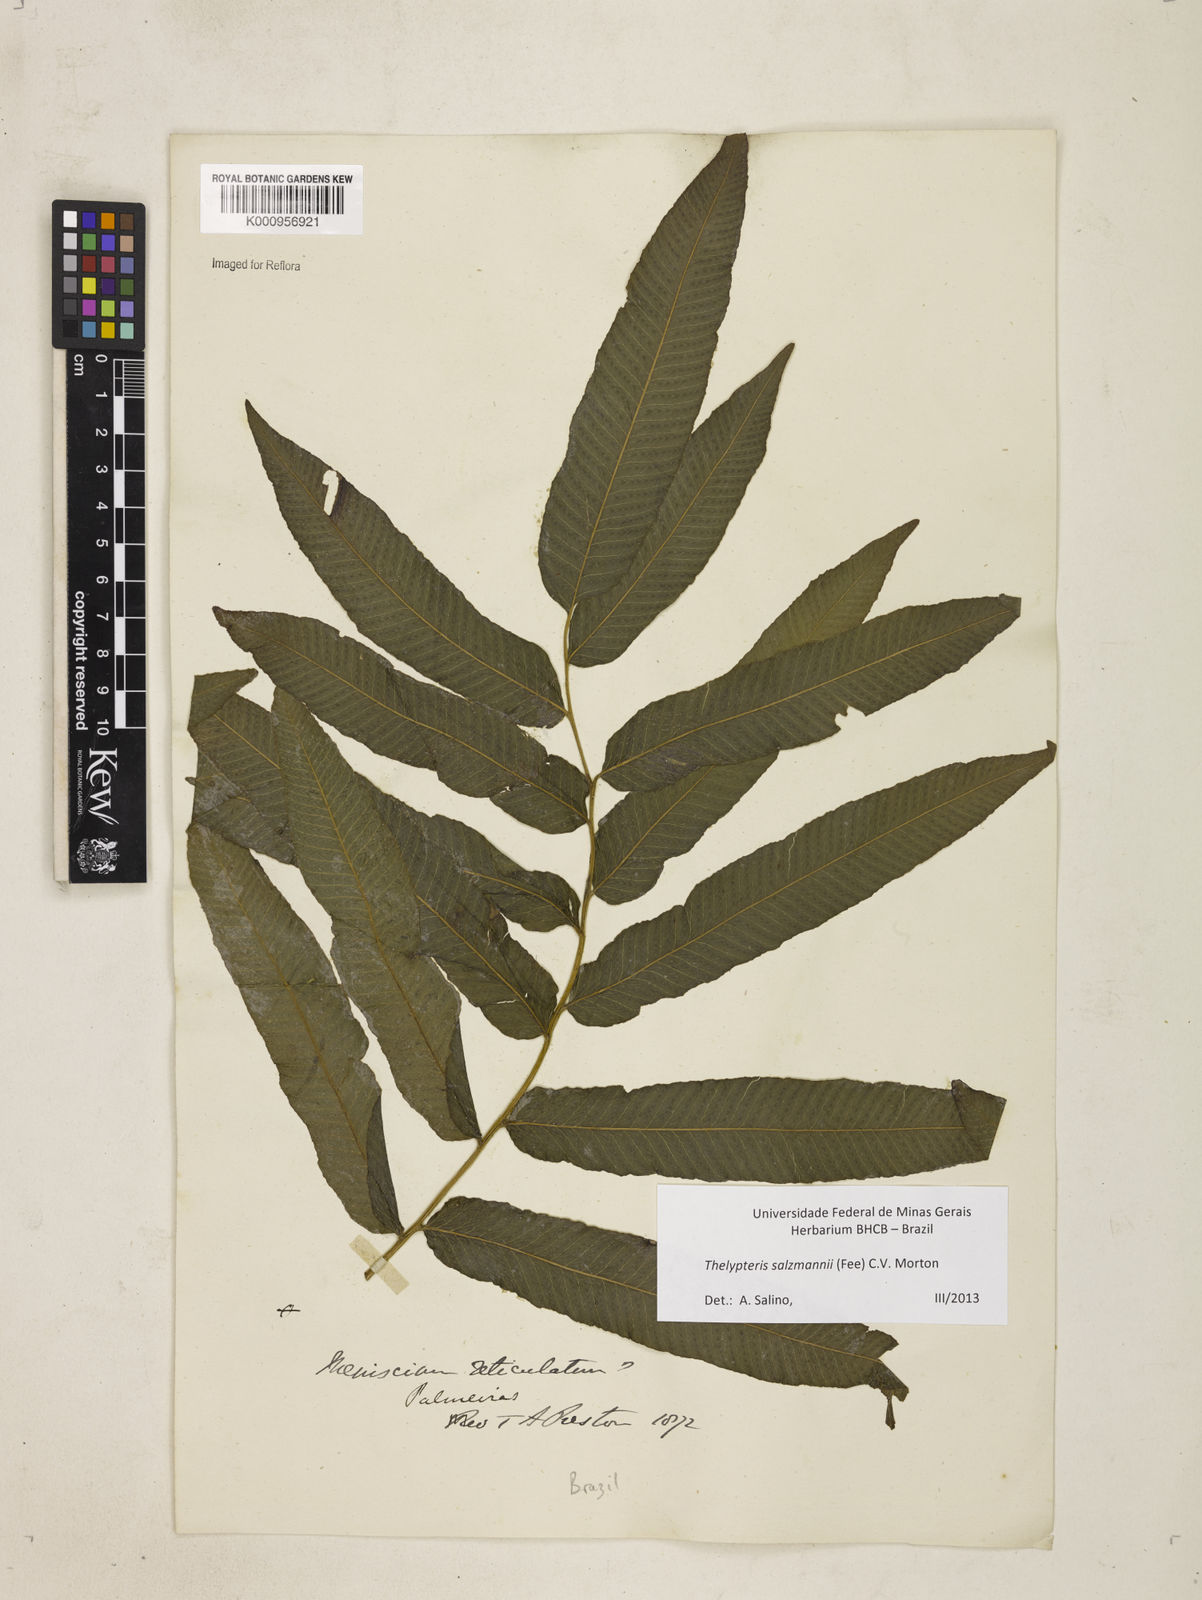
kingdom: Plantae
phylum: Tracheophyta
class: Polypodiopsida
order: Polypodiales
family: Thelypteridaceae
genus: Meniscium
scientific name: Meniscium arborescens
